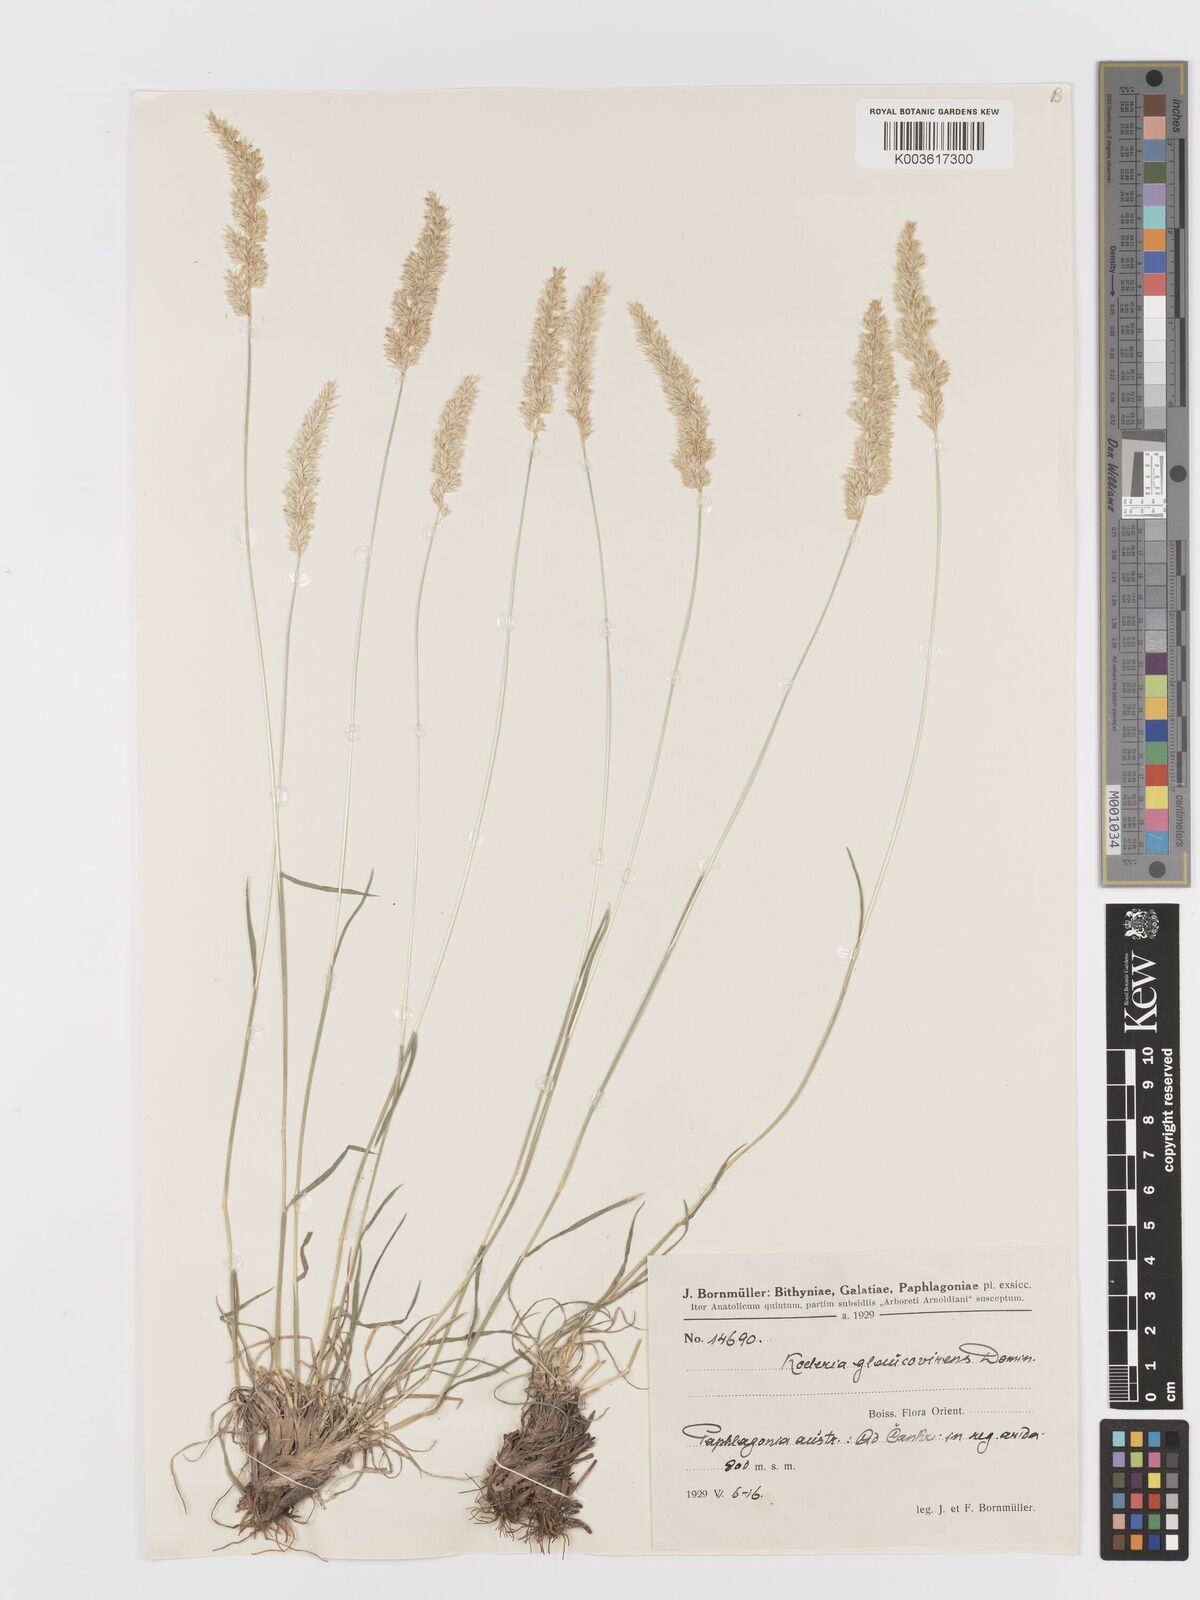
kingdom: Plantae
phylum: Tracheophyta
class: Liliopsida
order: Poales
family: Poaceae
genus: Koeleria
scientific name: Koeleria macrantha
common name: Crested hair-grass
